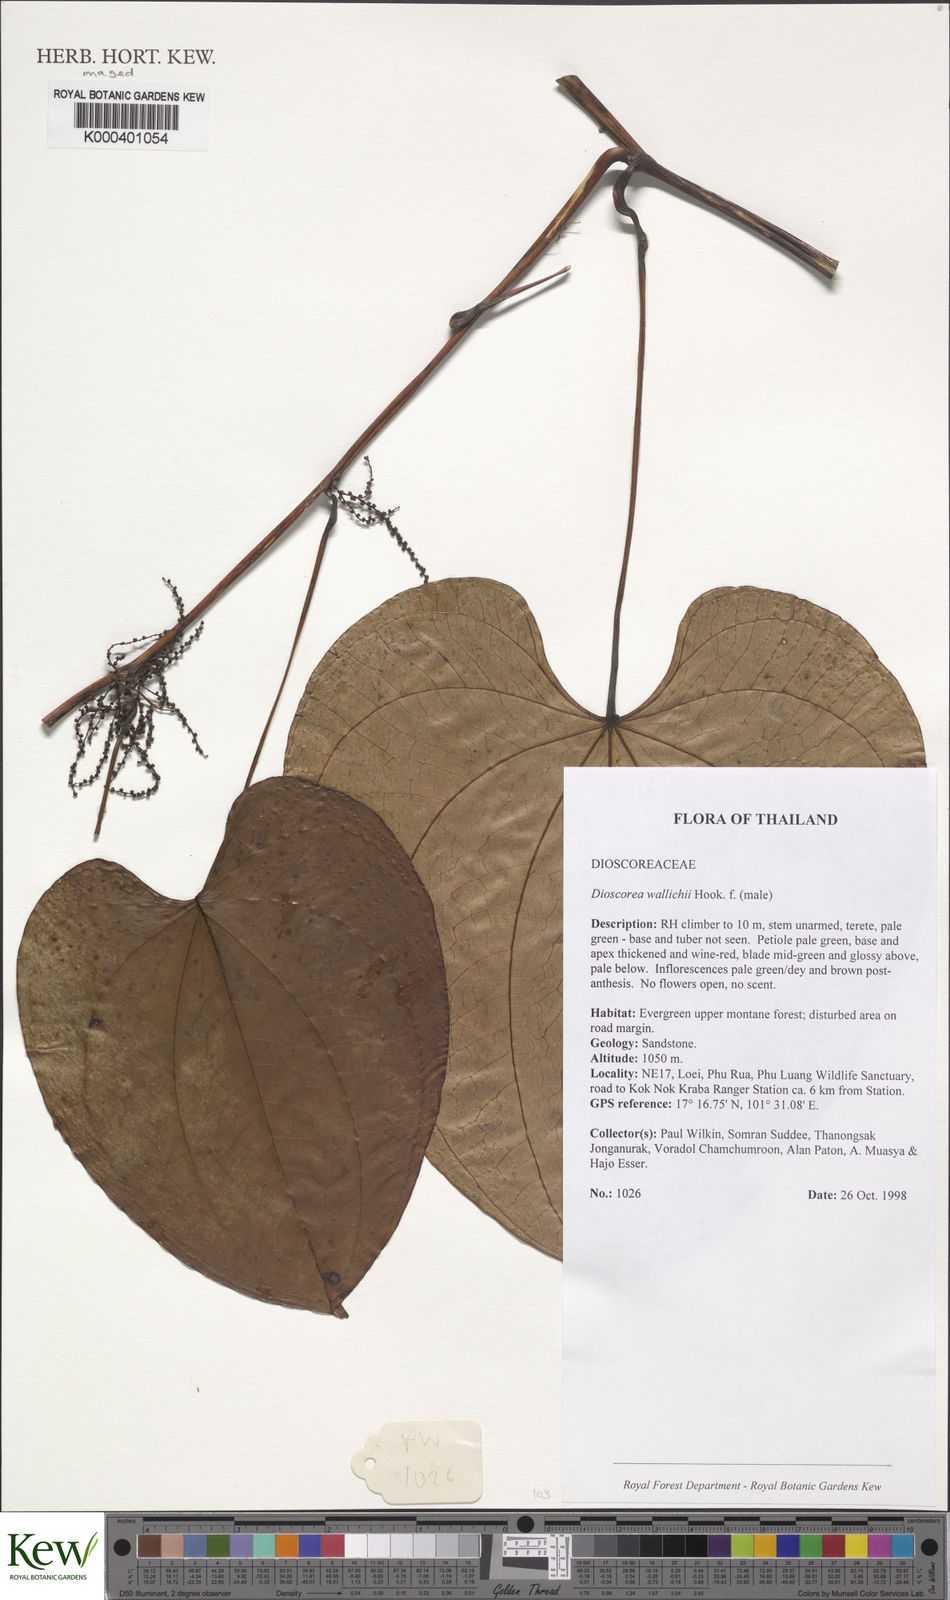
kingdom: Plantae
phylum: Tracheophyta
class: Liliopsida
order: Dioscoreales
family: Dioscoreaceae
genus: Dioscorea
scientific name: Dioscorea wallichii
